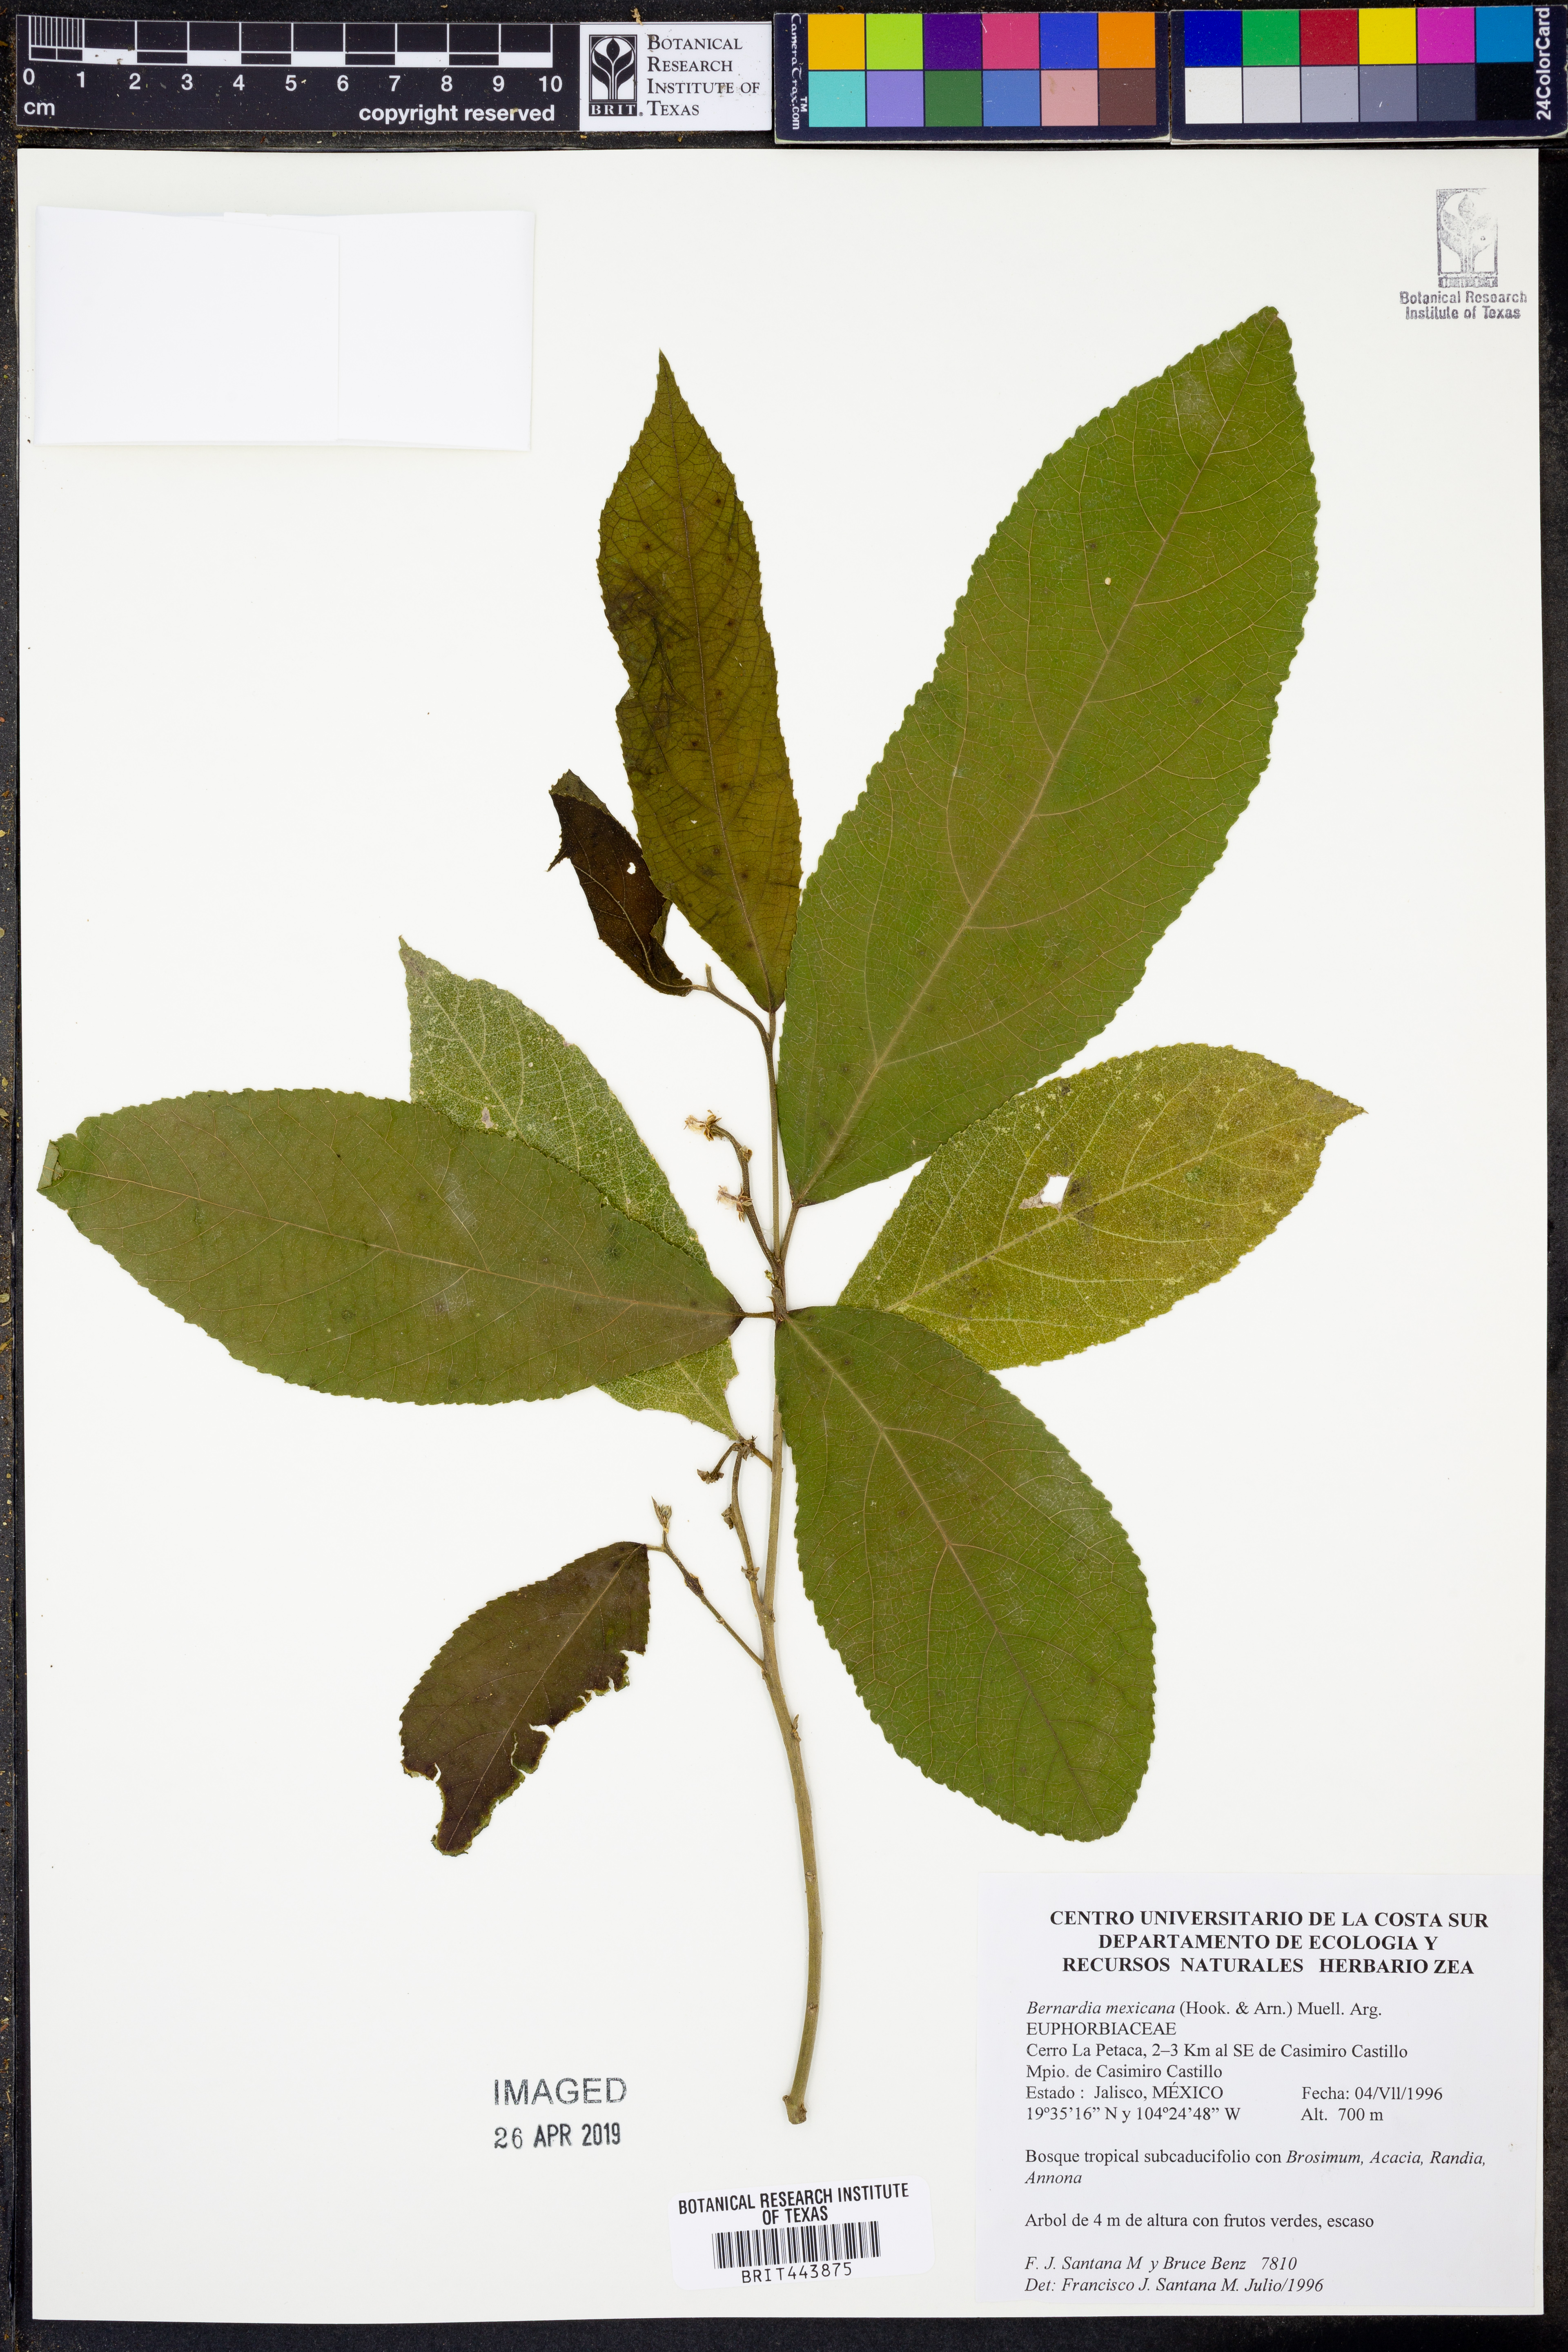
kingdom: Plantae
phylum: Tracheophyta
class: Magnoliopsida
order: Malpighiales
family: Euphorbiaceae
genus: Bernardia
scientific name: Bernardia mexicana
